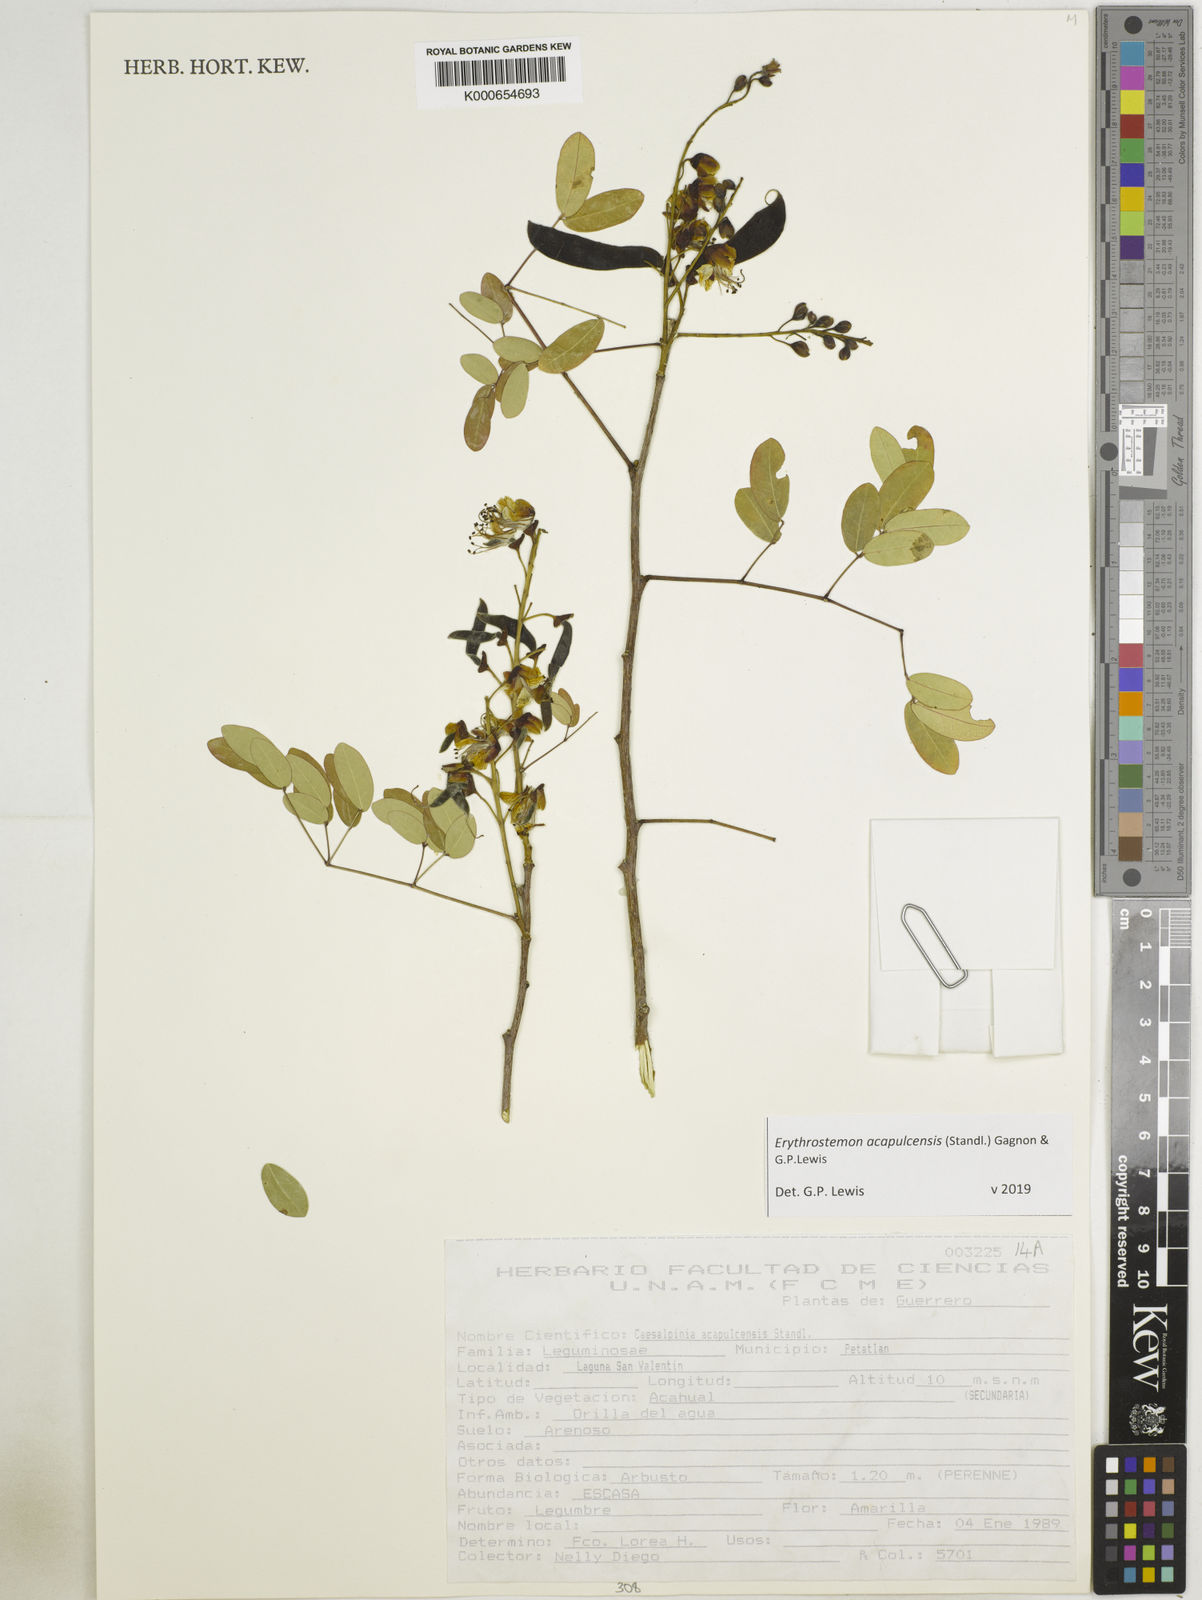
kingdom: Plantae
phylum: Tracheophyta
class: Magnoliopsida
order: Fabales
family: Fabaceae
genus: Erythrostemon
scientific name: Erythrostemon acapulcensis
